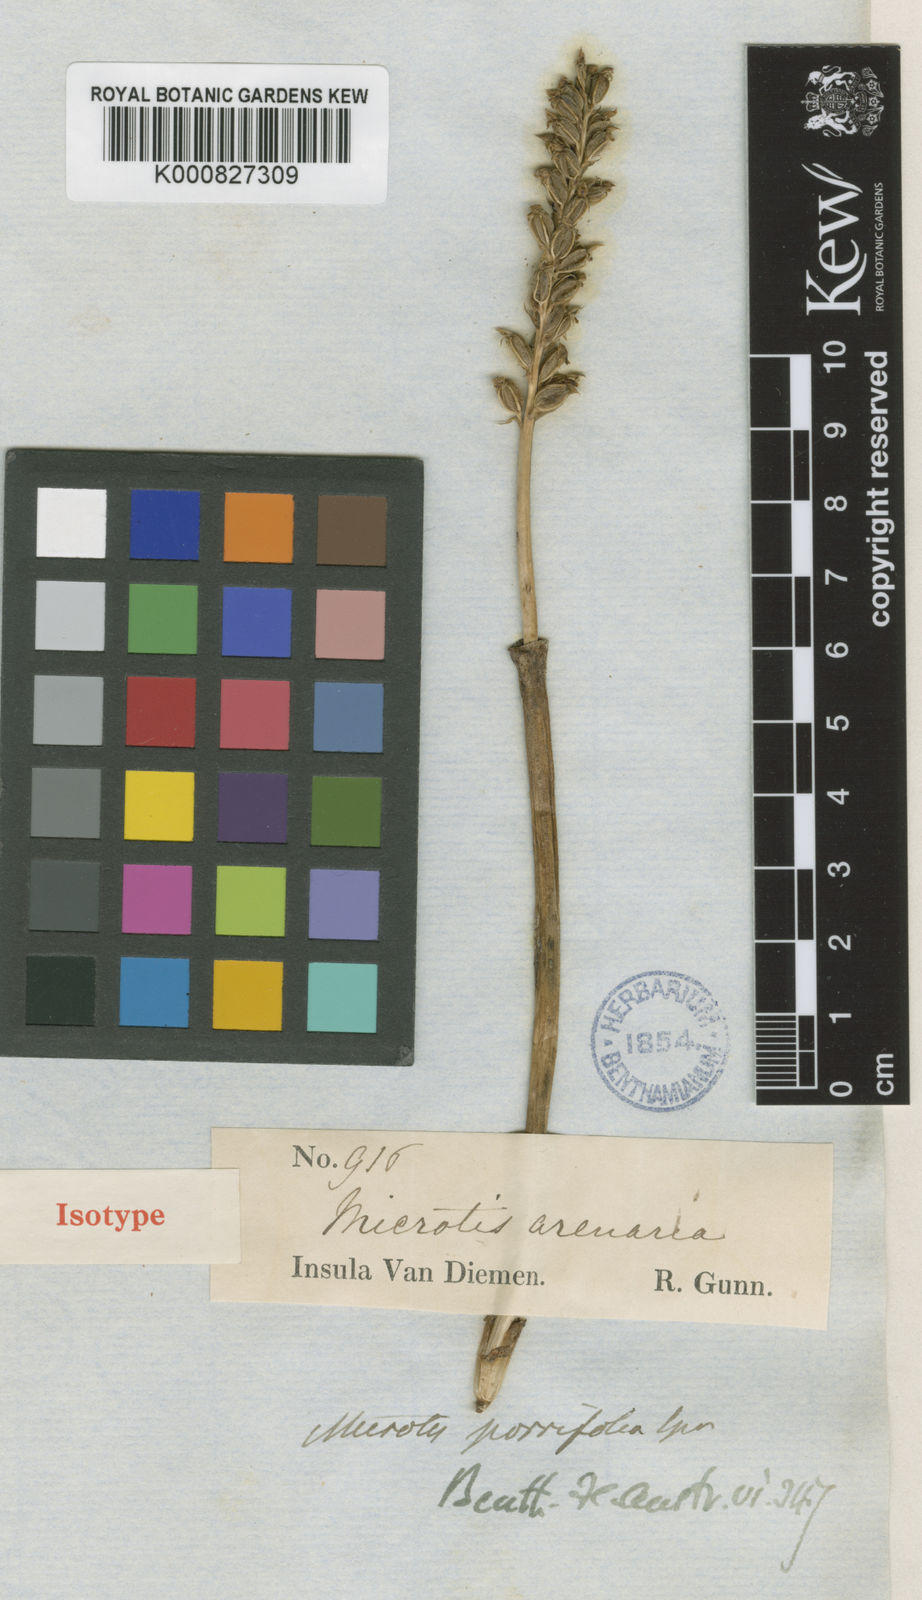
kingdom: Plantae
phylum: Tracheophyta
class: Liliopsida
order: Asparagales
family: Orchidaceae
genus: Microtis
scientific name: Microtis unifolia
